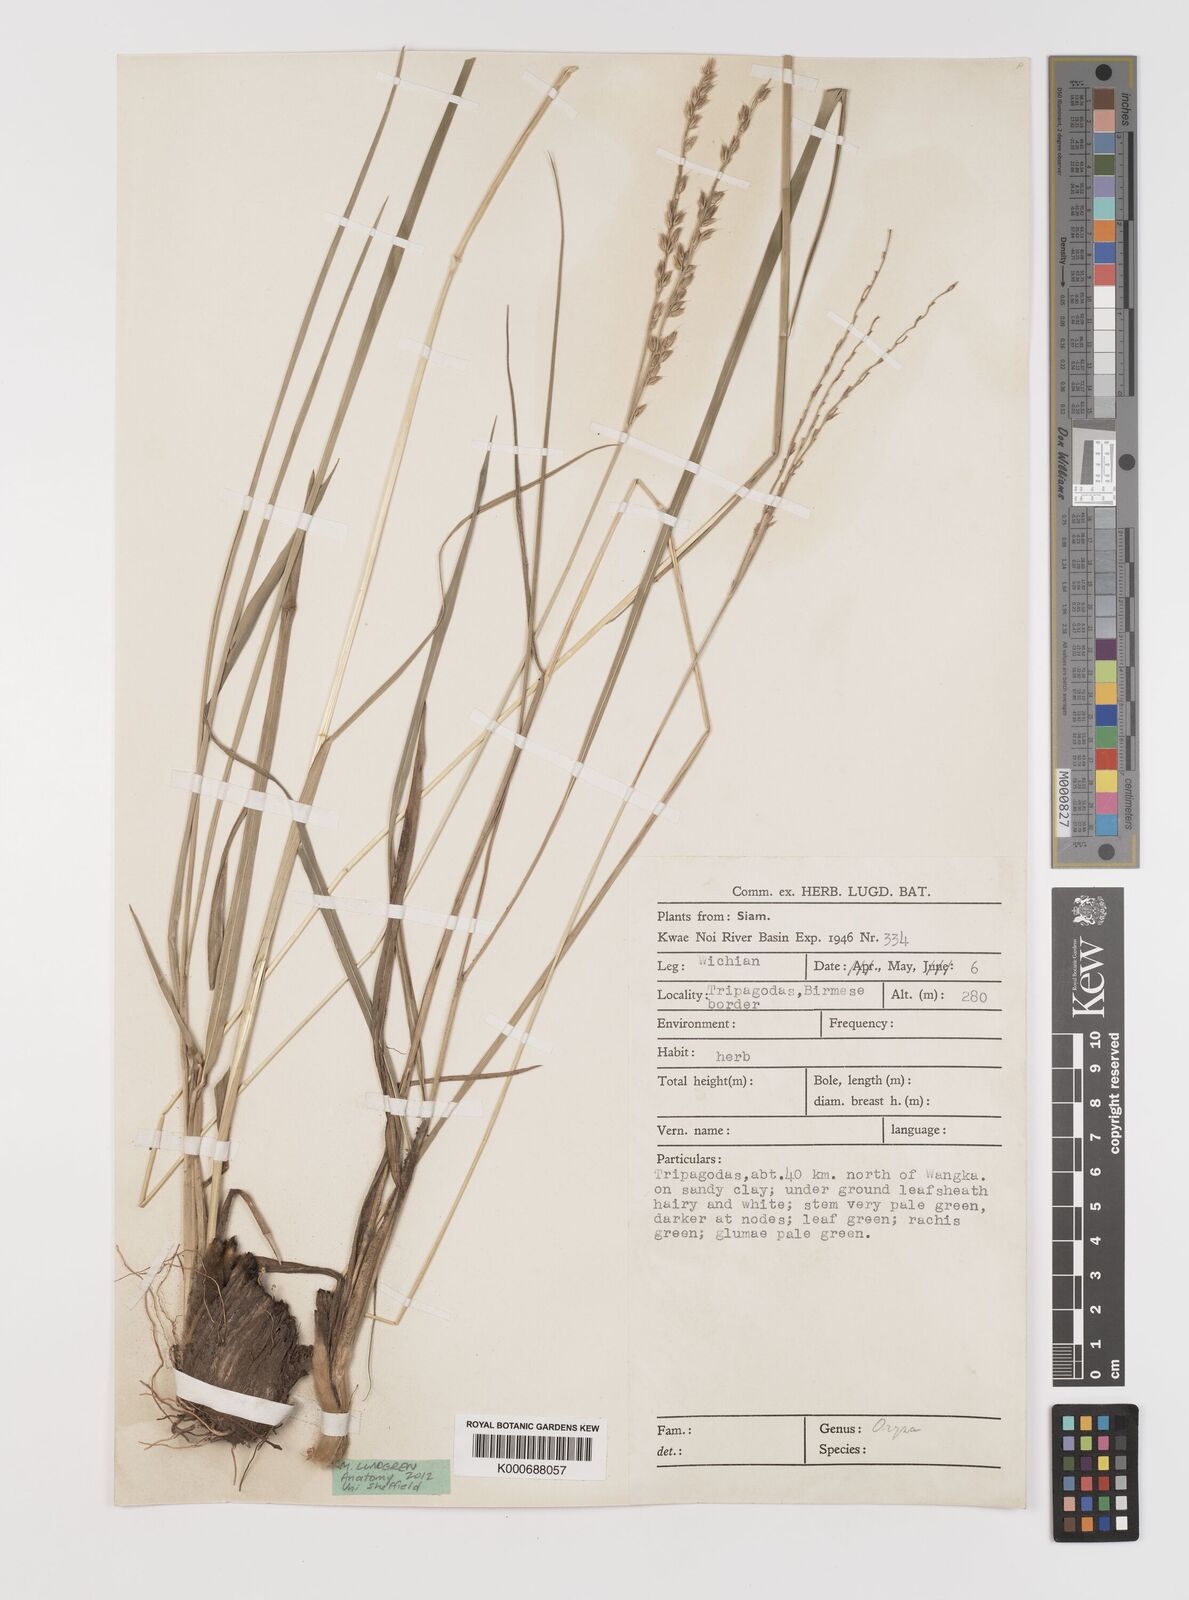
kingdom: Plantae
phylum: Tracheophyta
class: Liliopsida
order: Poales
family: Poaceae
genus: Alloteropsis
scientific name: Alloteropsis semialata
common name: Cockatoo grass
